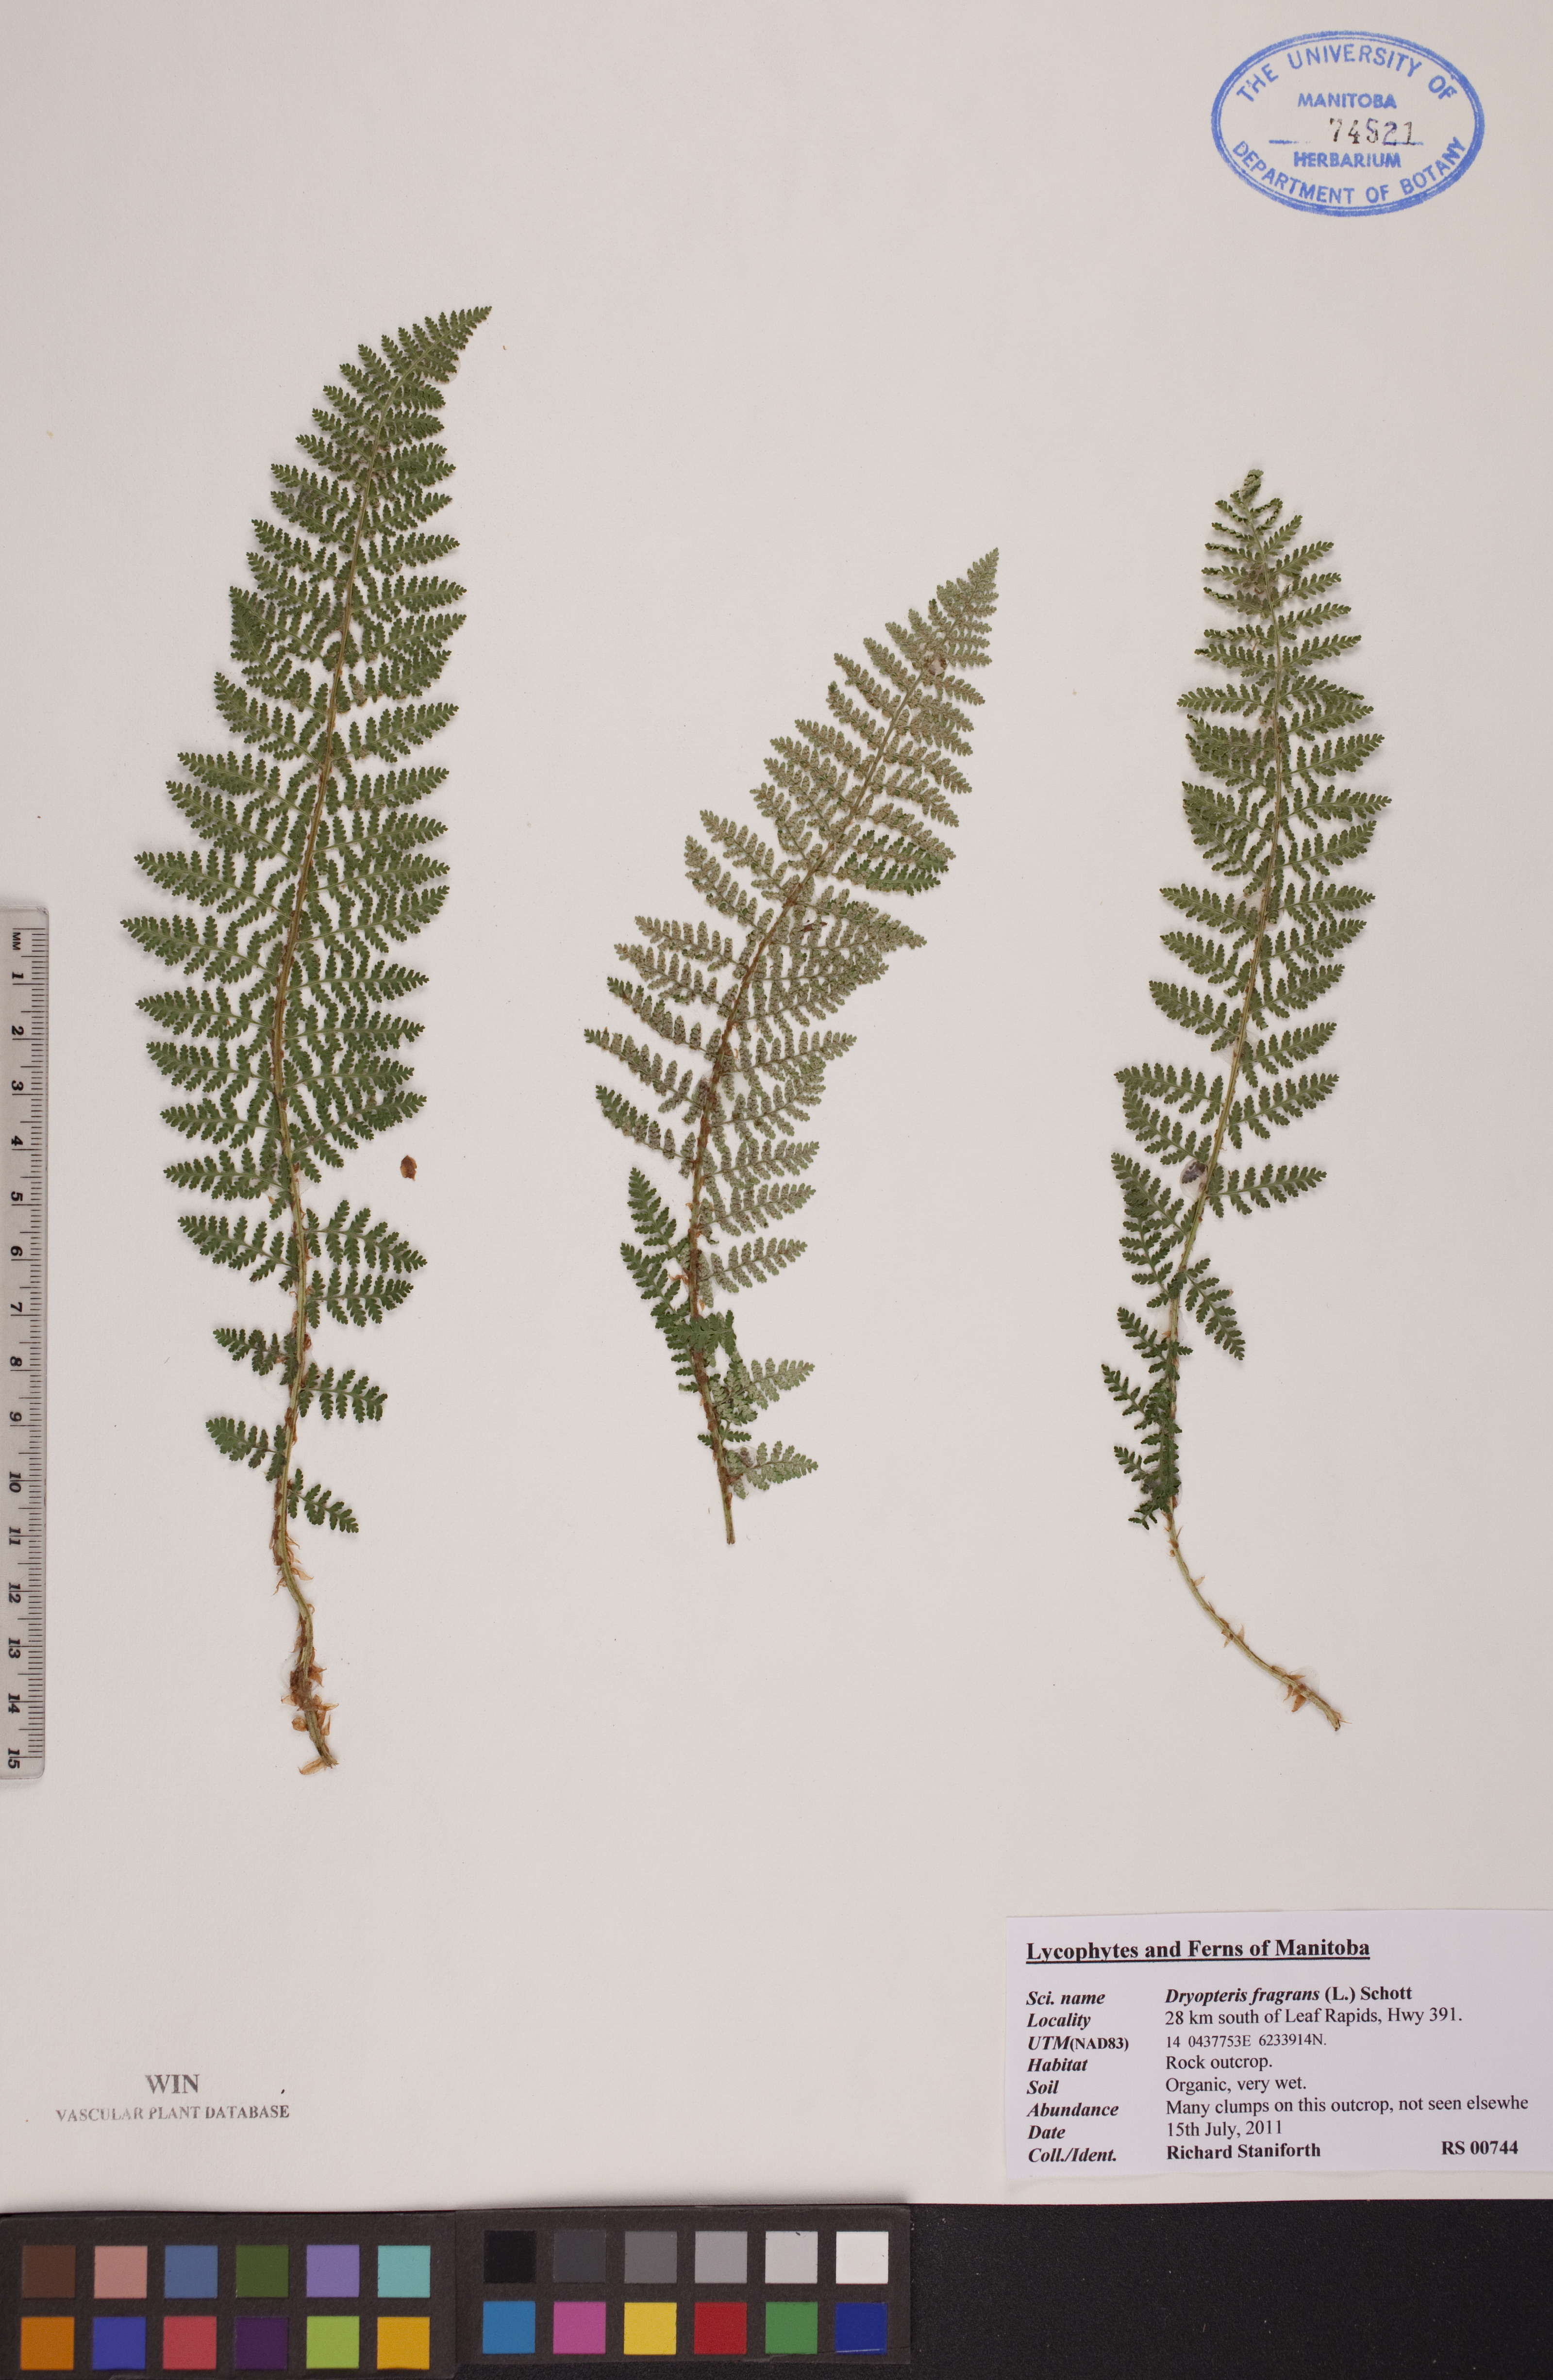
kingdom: Plantae
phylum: Tracheophyta
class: Polypodiopsida
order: Polypodiales
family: Dryopteridaceae
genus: Dryopteris
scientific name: Dryopteris fragrans
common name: Fragrant wood fern
